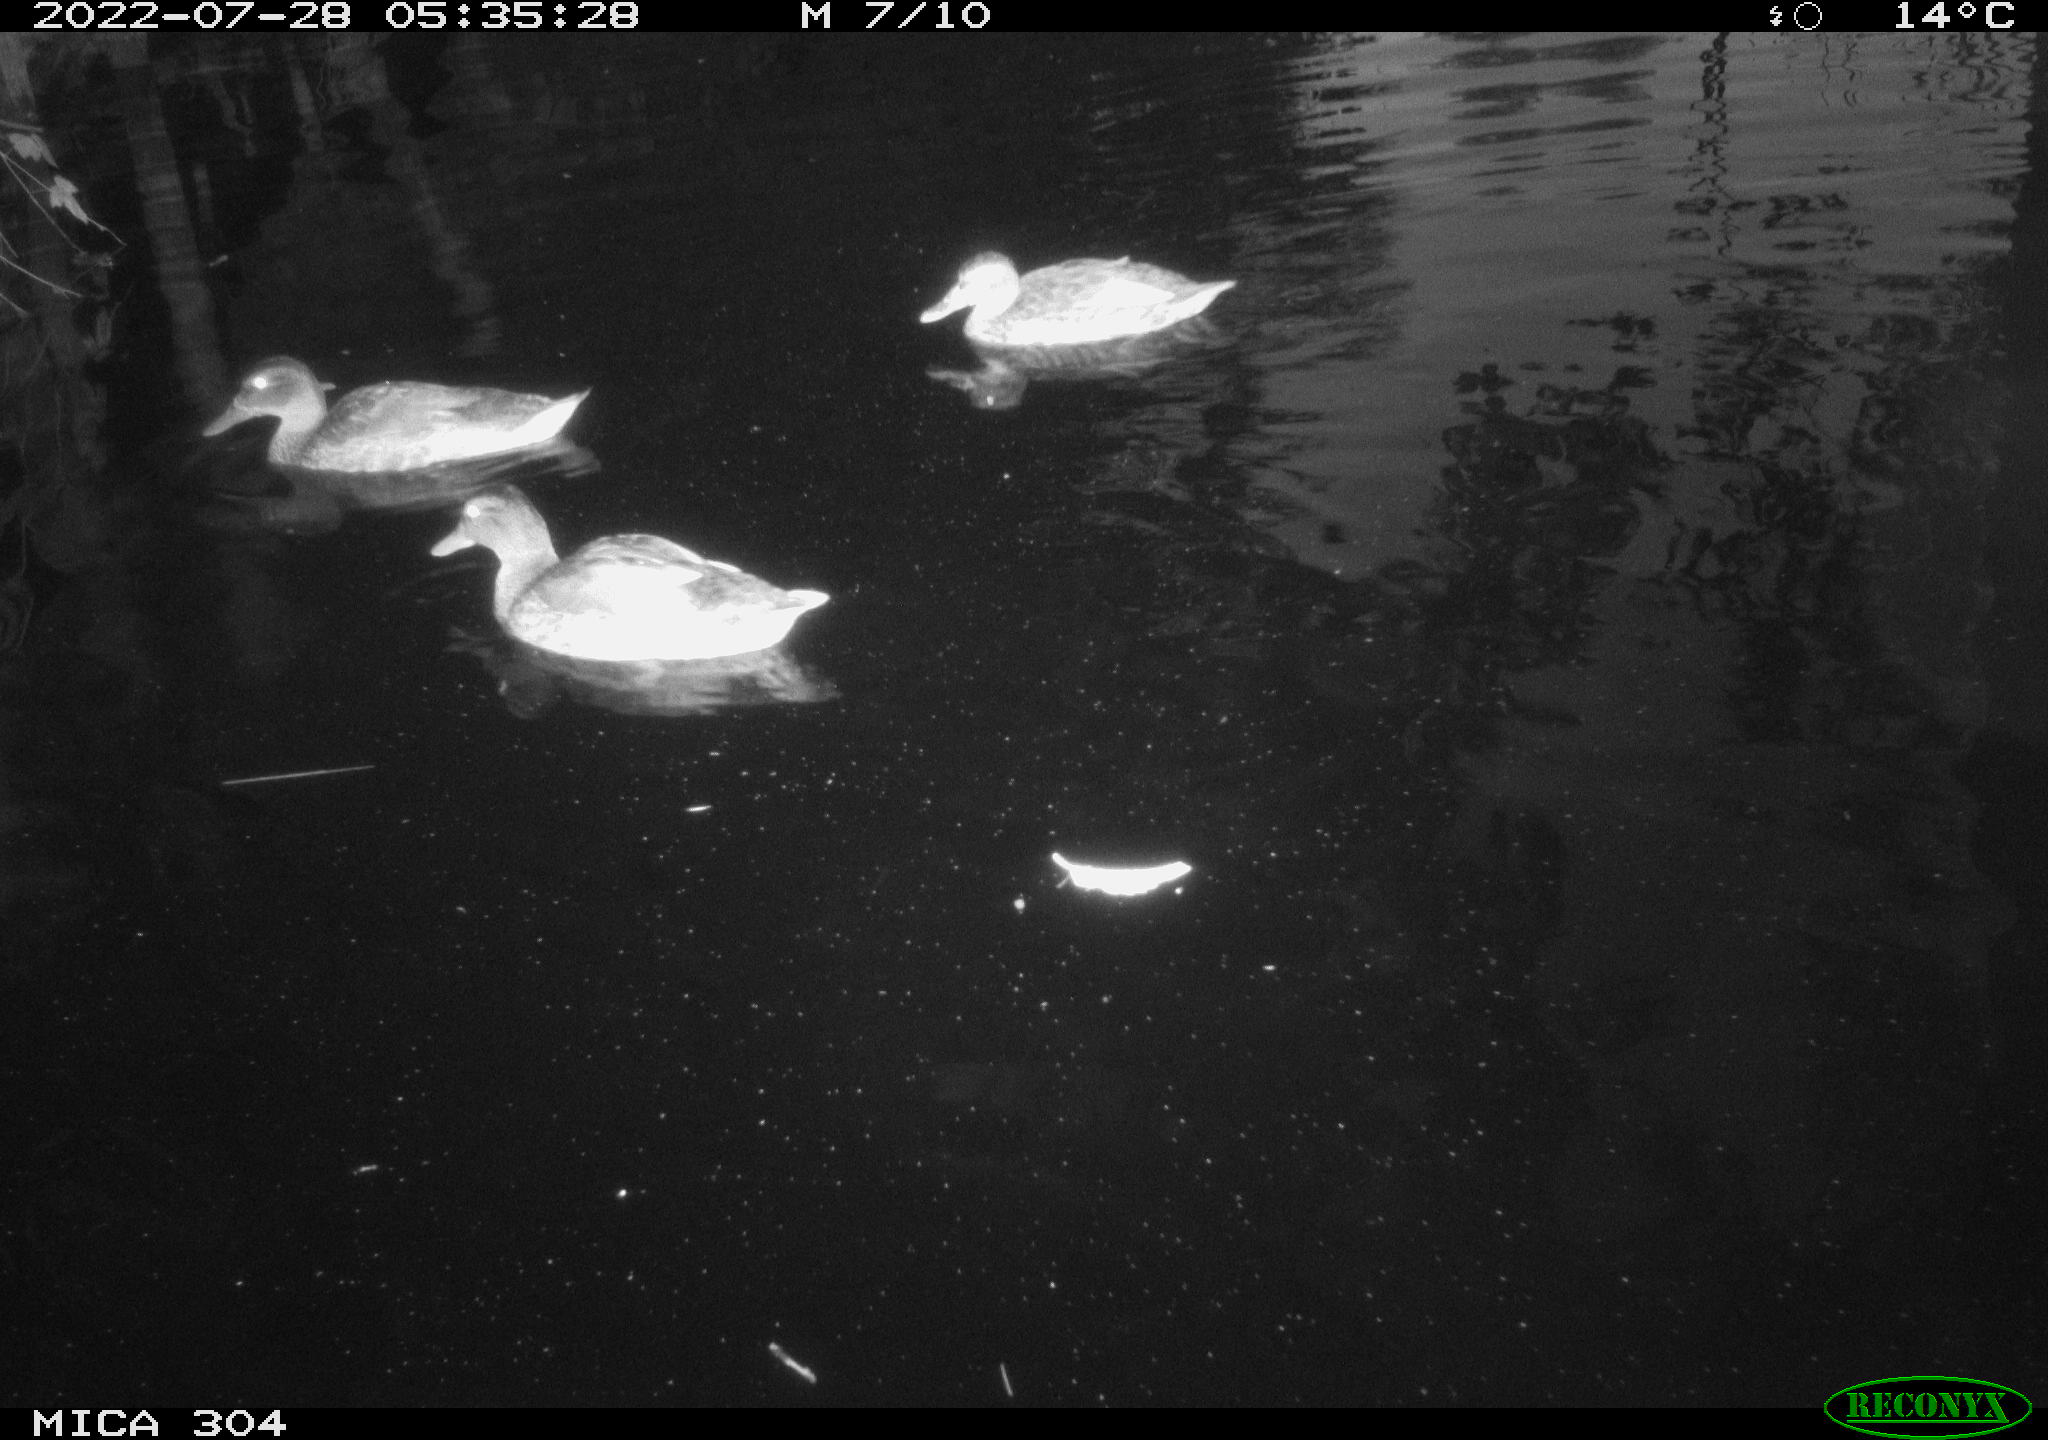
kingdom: Animalia
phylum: Chordata
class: Aves
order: Anseriformes
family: Anatidae
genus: Mareca
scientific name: Mareca strepera
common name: Gadwall
